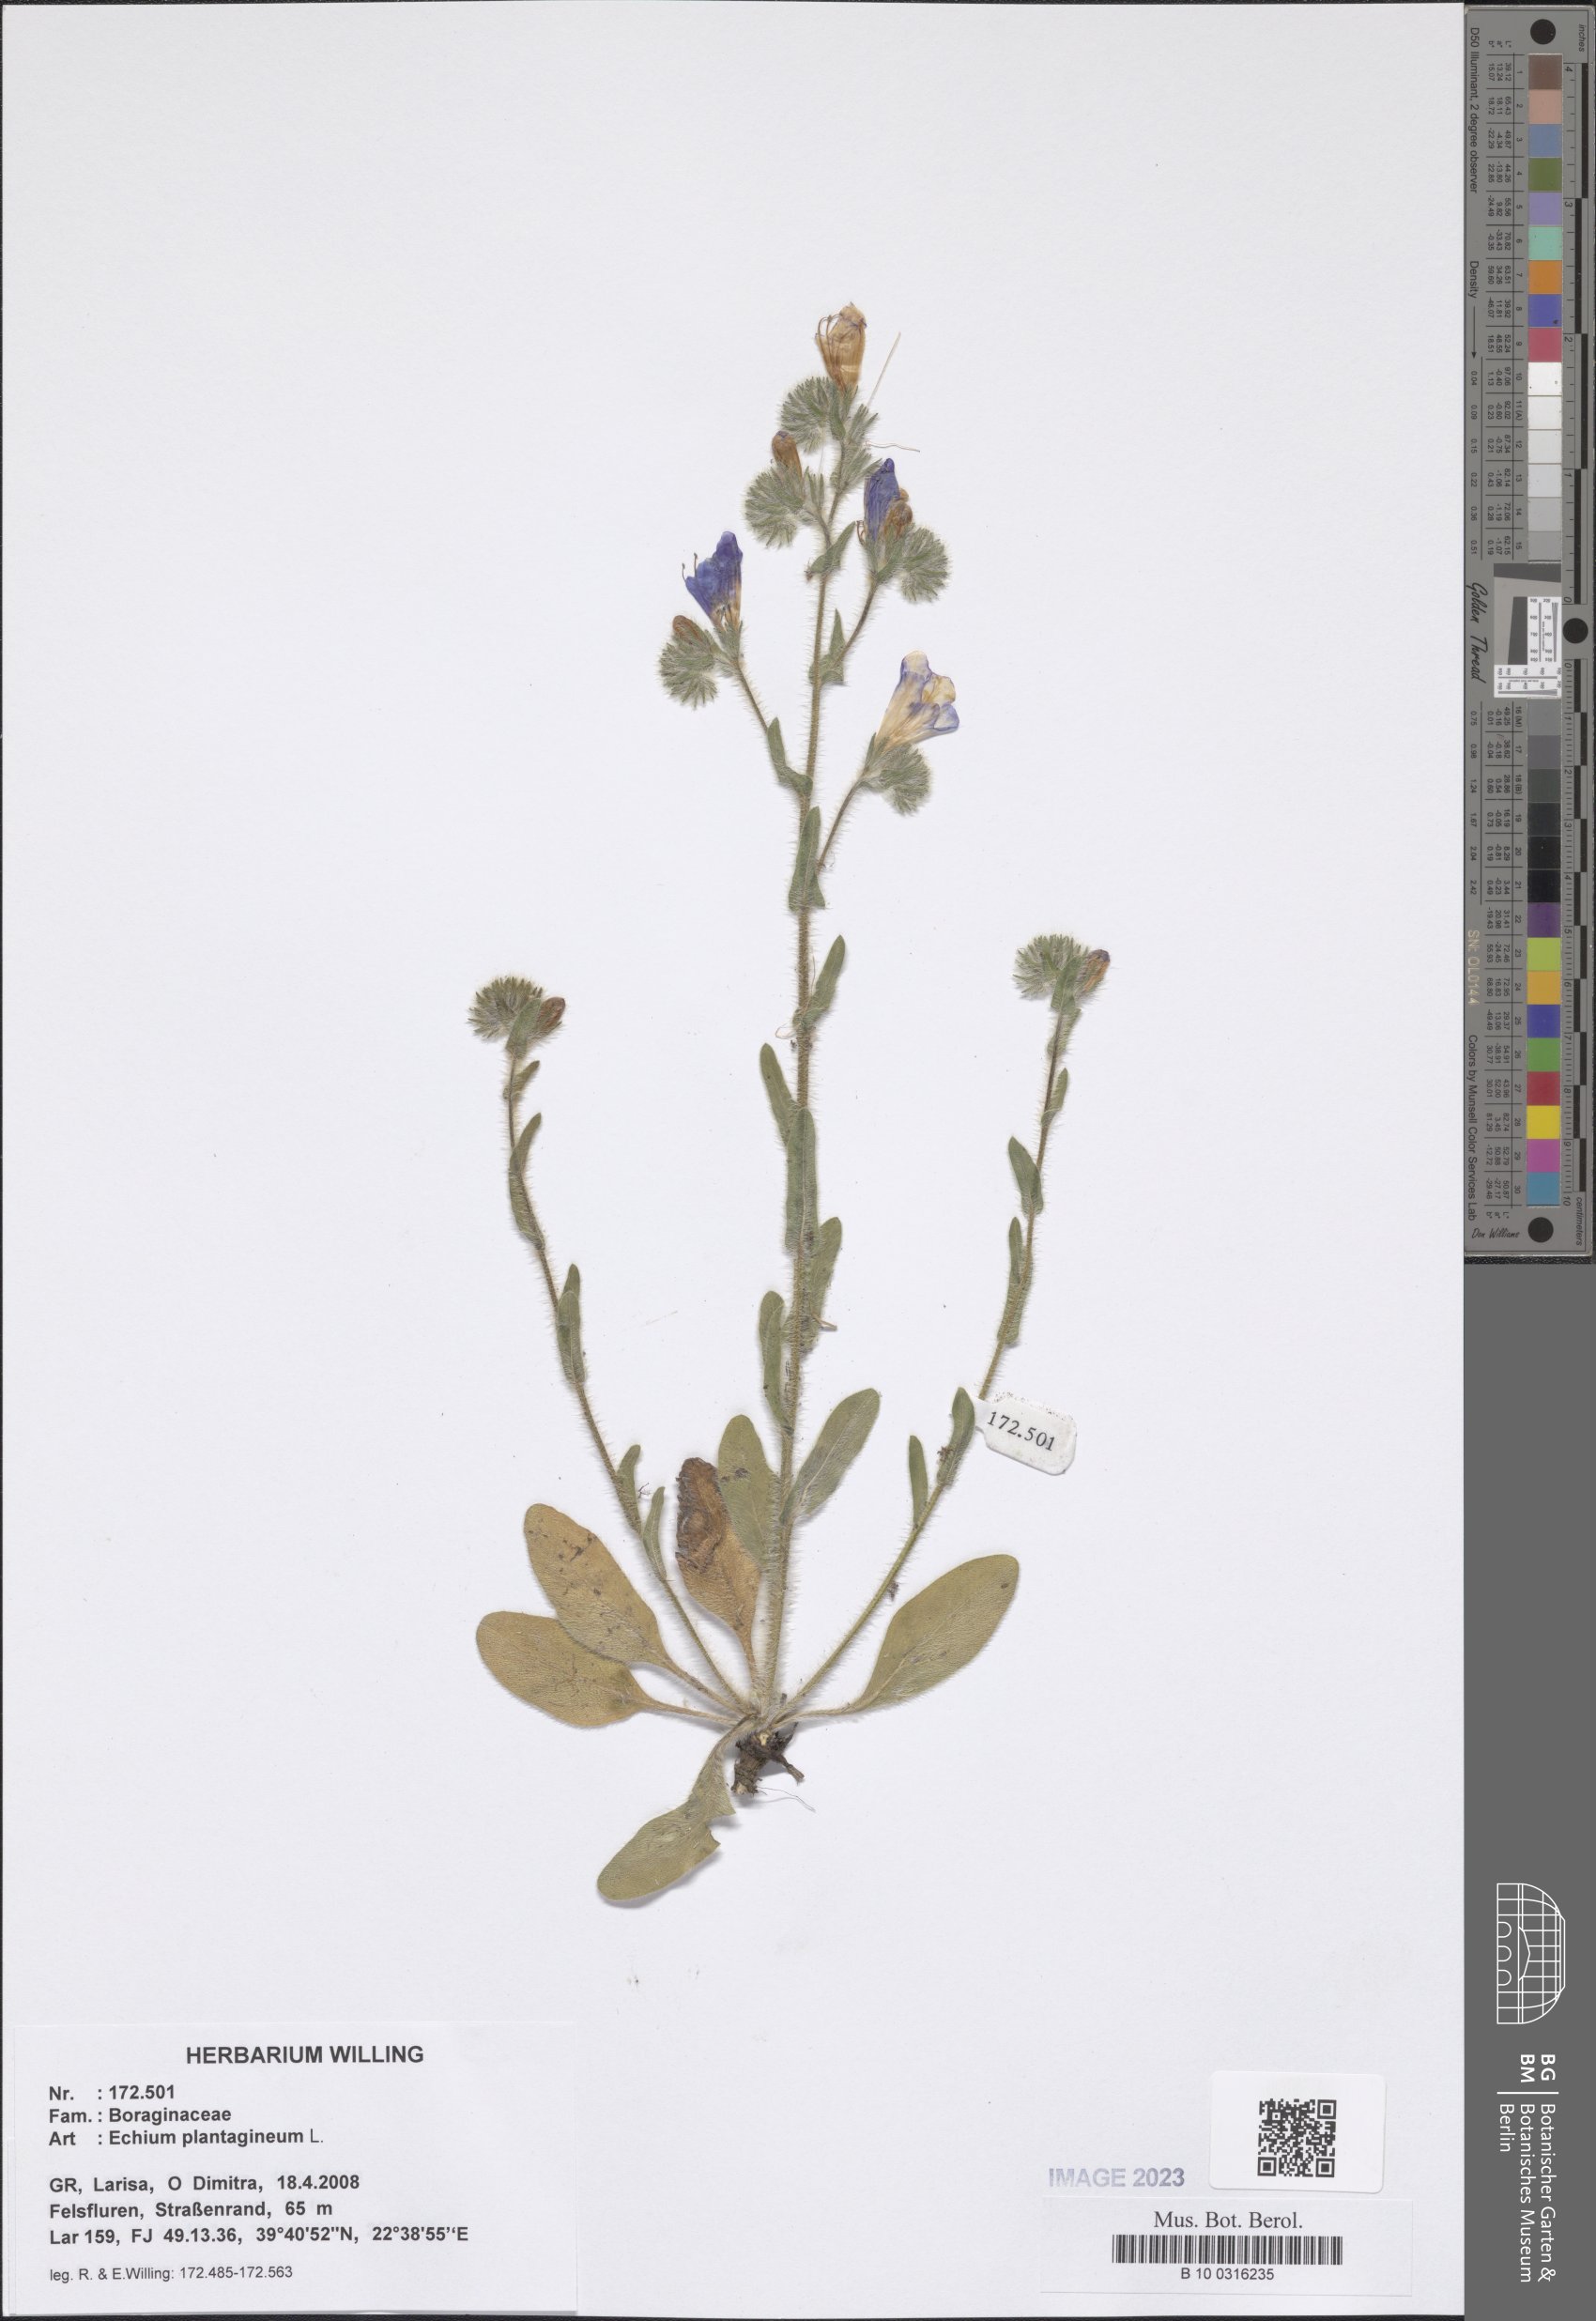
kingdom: Plantae
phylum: Tracheophyta
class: Magnoliopsida
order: Boraginales
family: Boraginaceae
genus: Echium
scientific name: Echium plantagineum
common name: Purple viper's-bugloss
